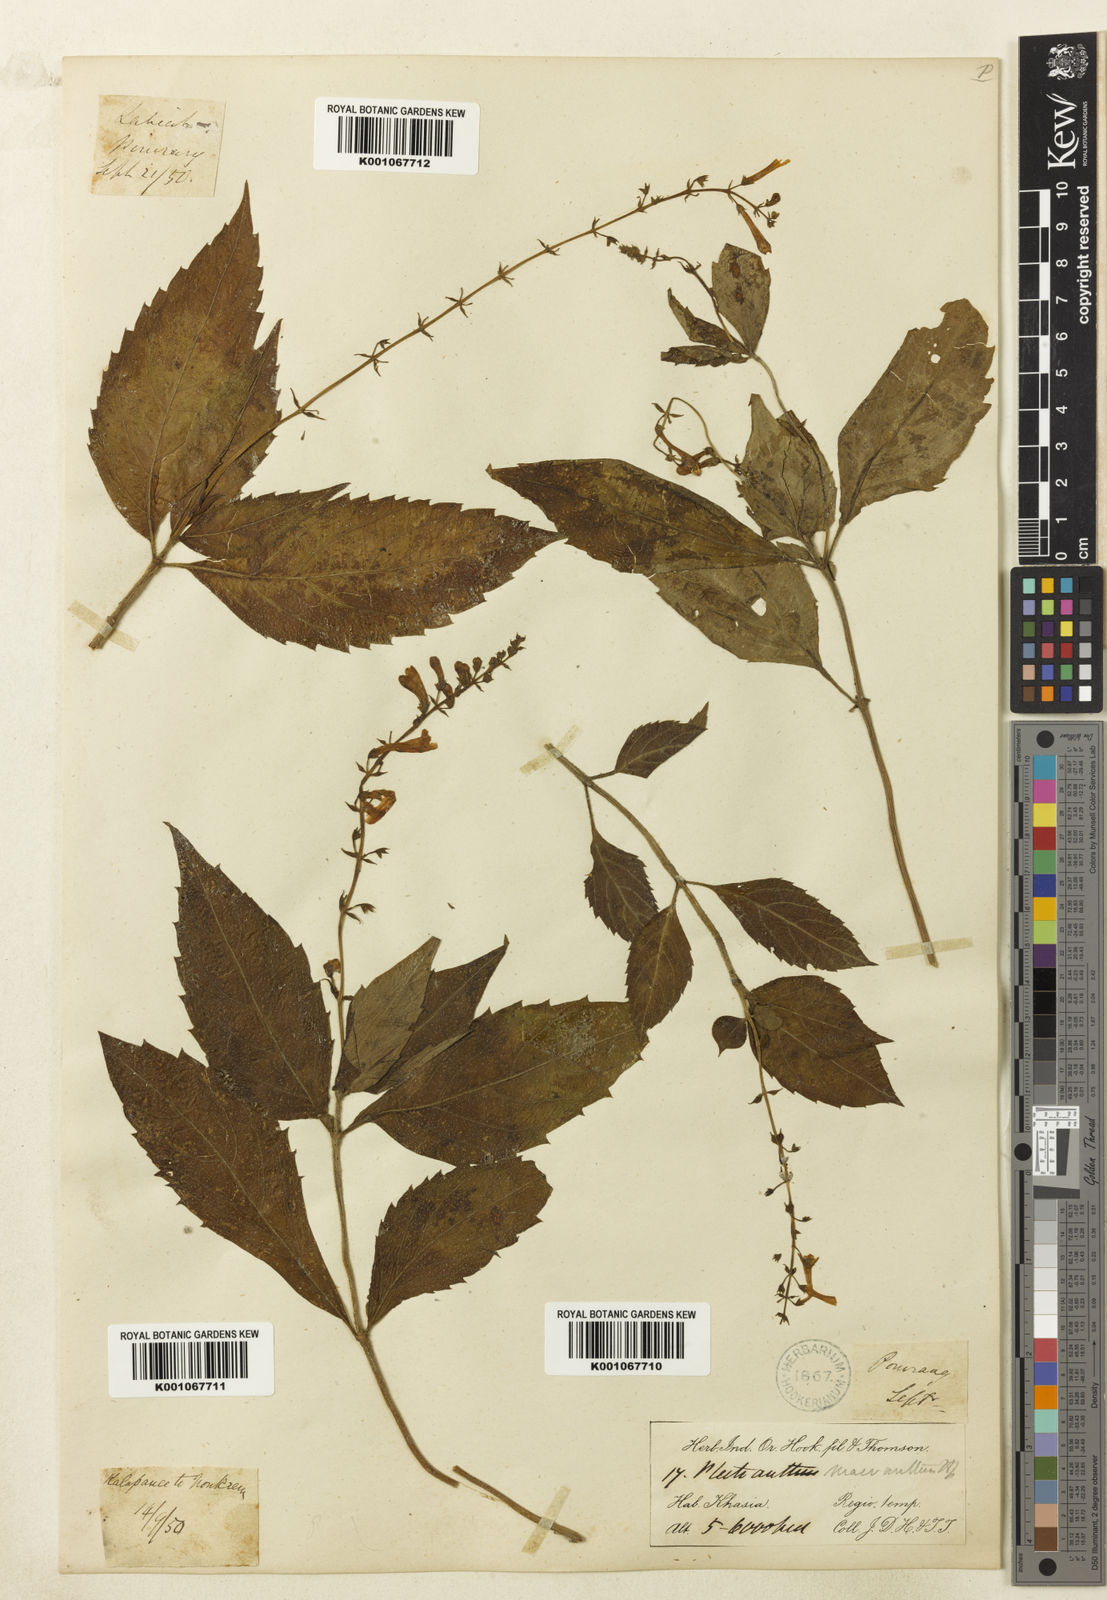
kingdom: Plantae
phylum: Tracheophyta
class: Magnoliopsida
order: Lamiales
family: Lamiaceae
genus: Siphocranion
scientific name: Siphocranion macranthum
